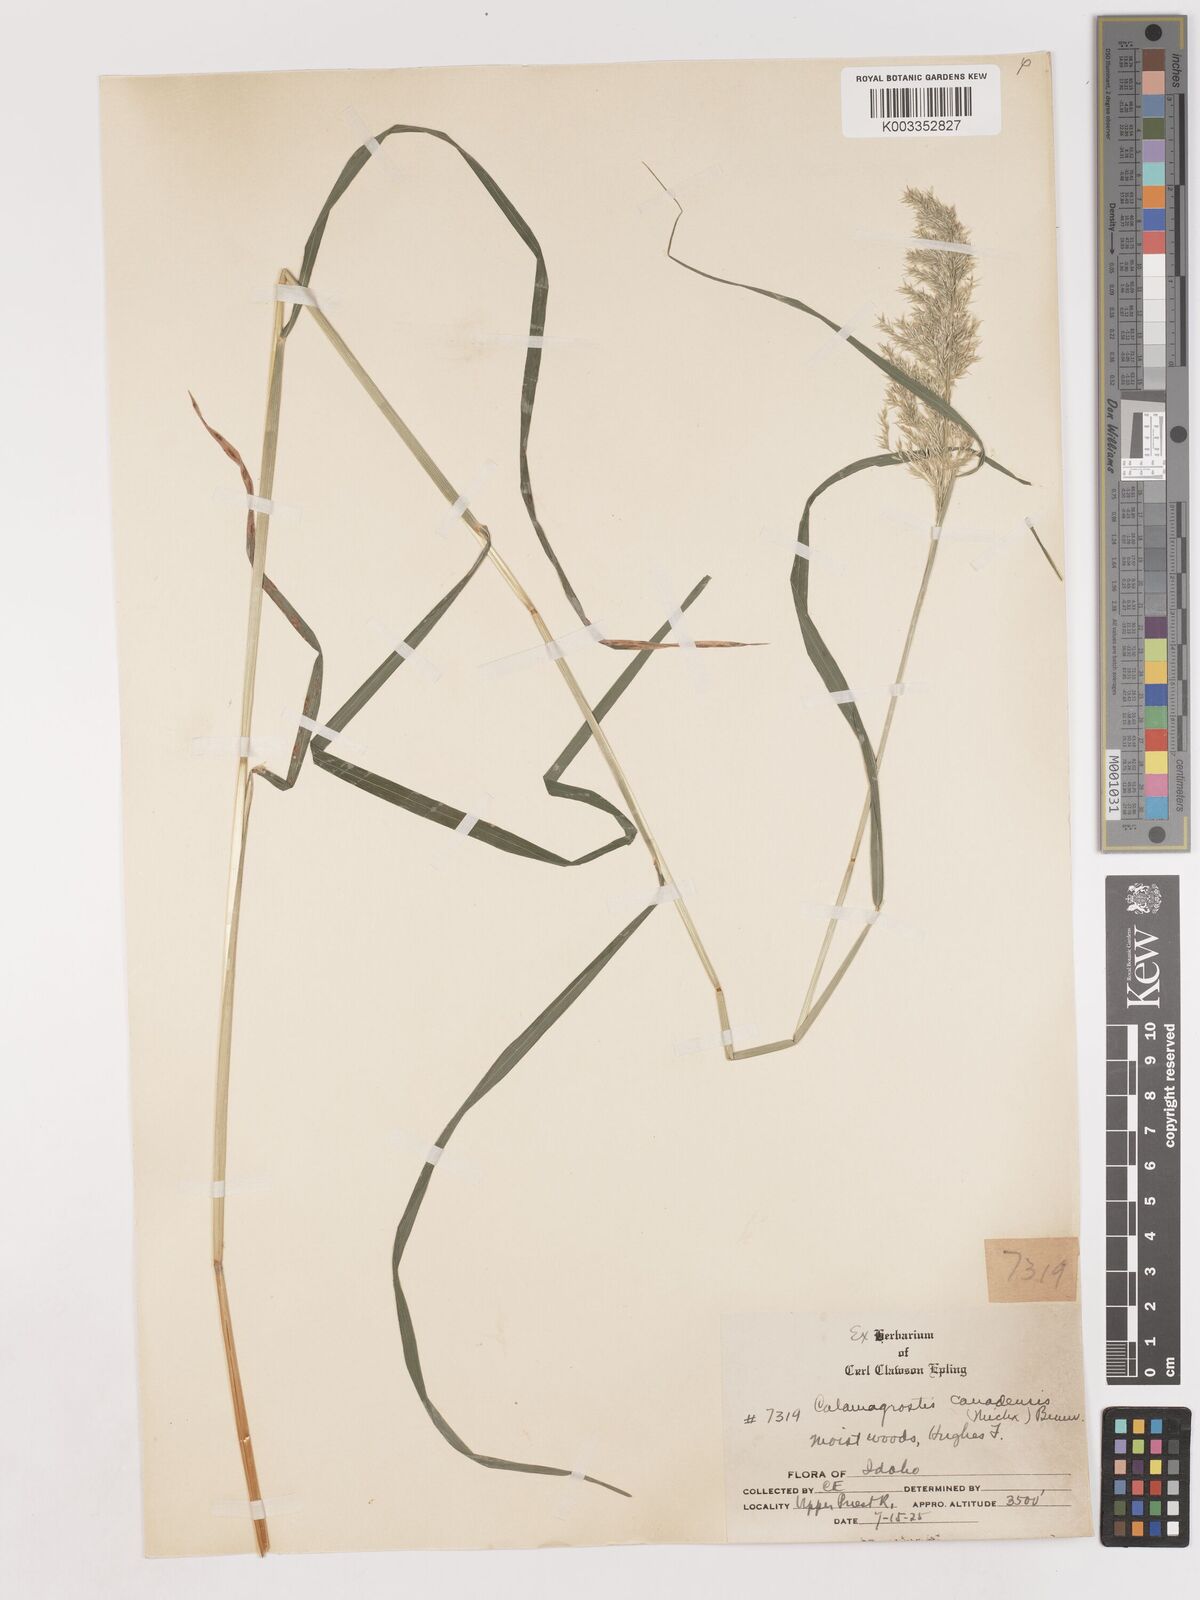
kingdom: Plantae
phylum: Tracheophyta
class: Liliopsida
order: Poales
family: Poaceae
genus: Calamagrostis
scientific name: Calamagrostis canadensis
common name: Canada bluejoint
